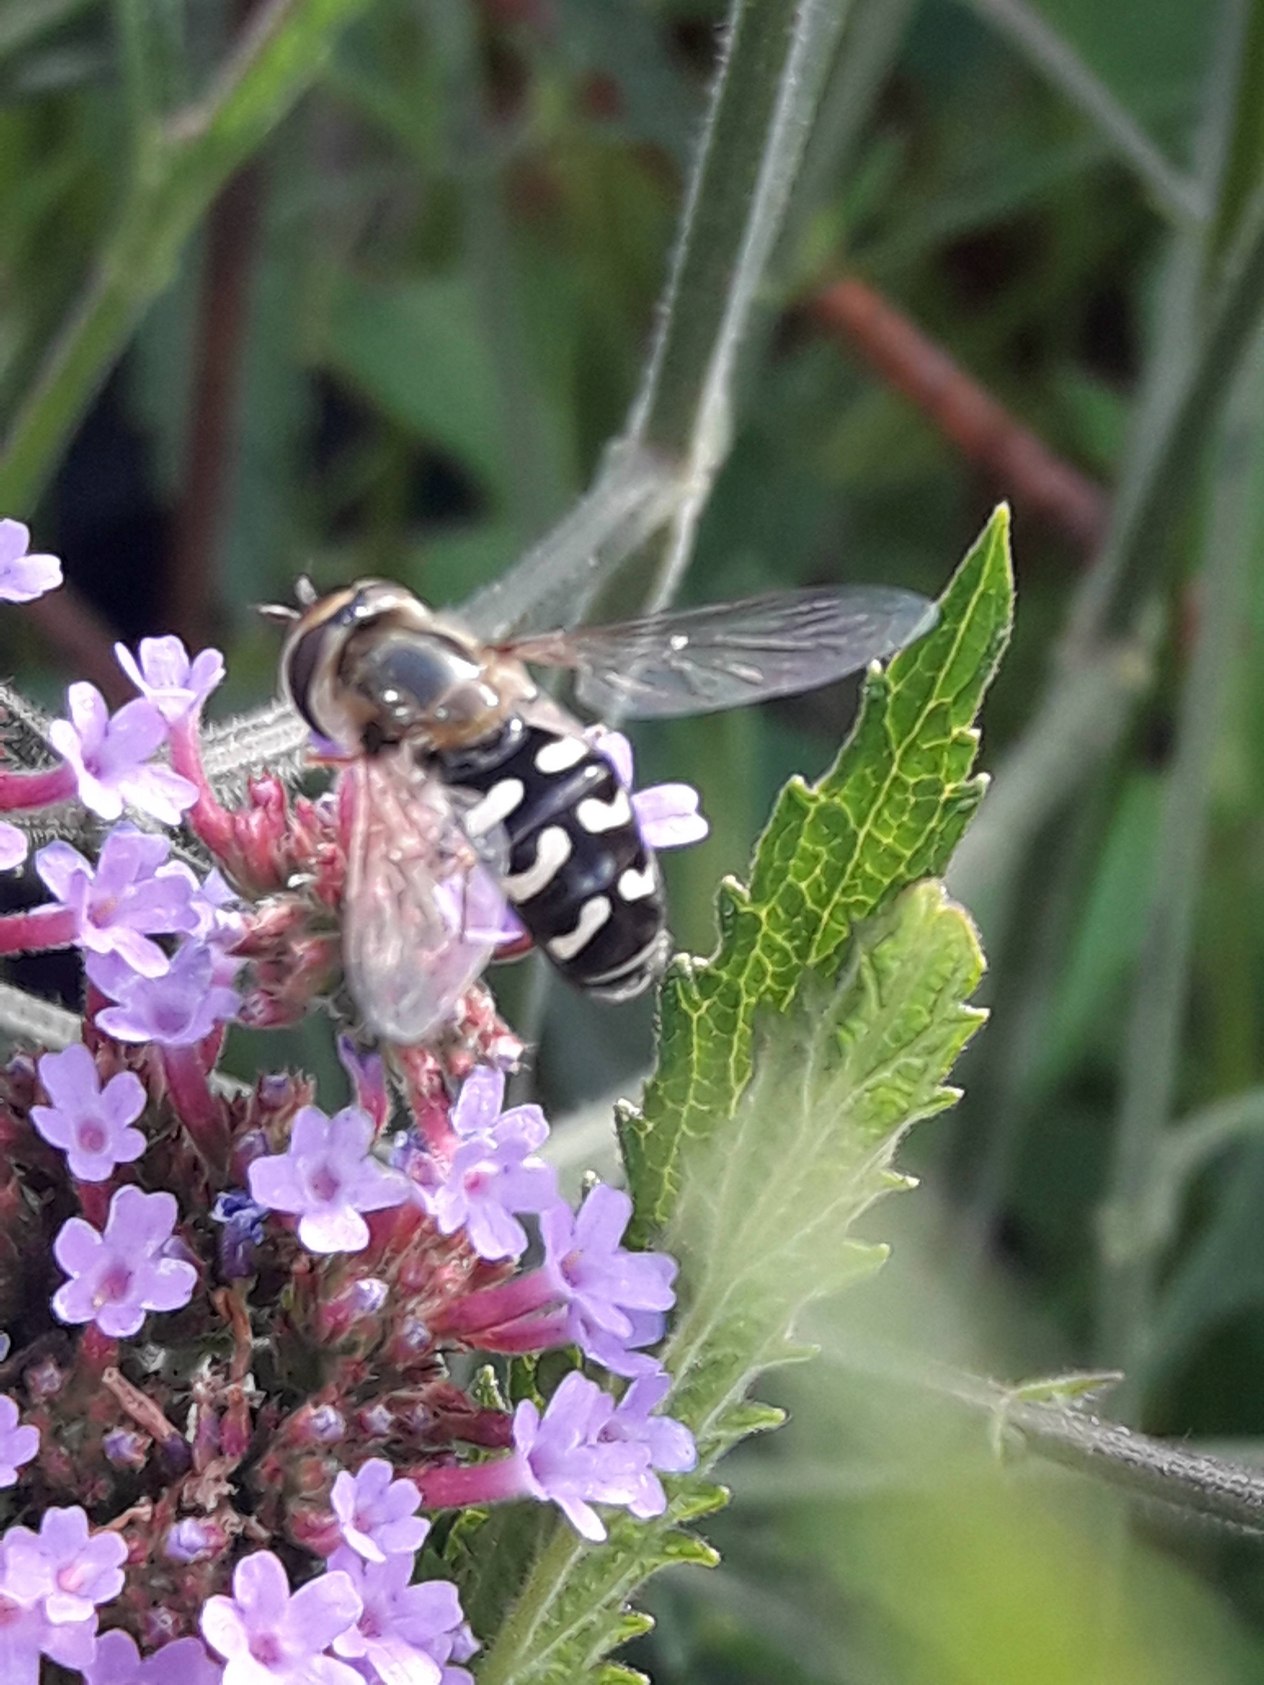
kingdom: Animalia
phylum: Arthropoda
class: Insecta
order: Diptera
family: Syrphidae
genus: Scaeva
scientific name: Scaeva pyrastri
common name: Hvidplettet agersvirreflue
